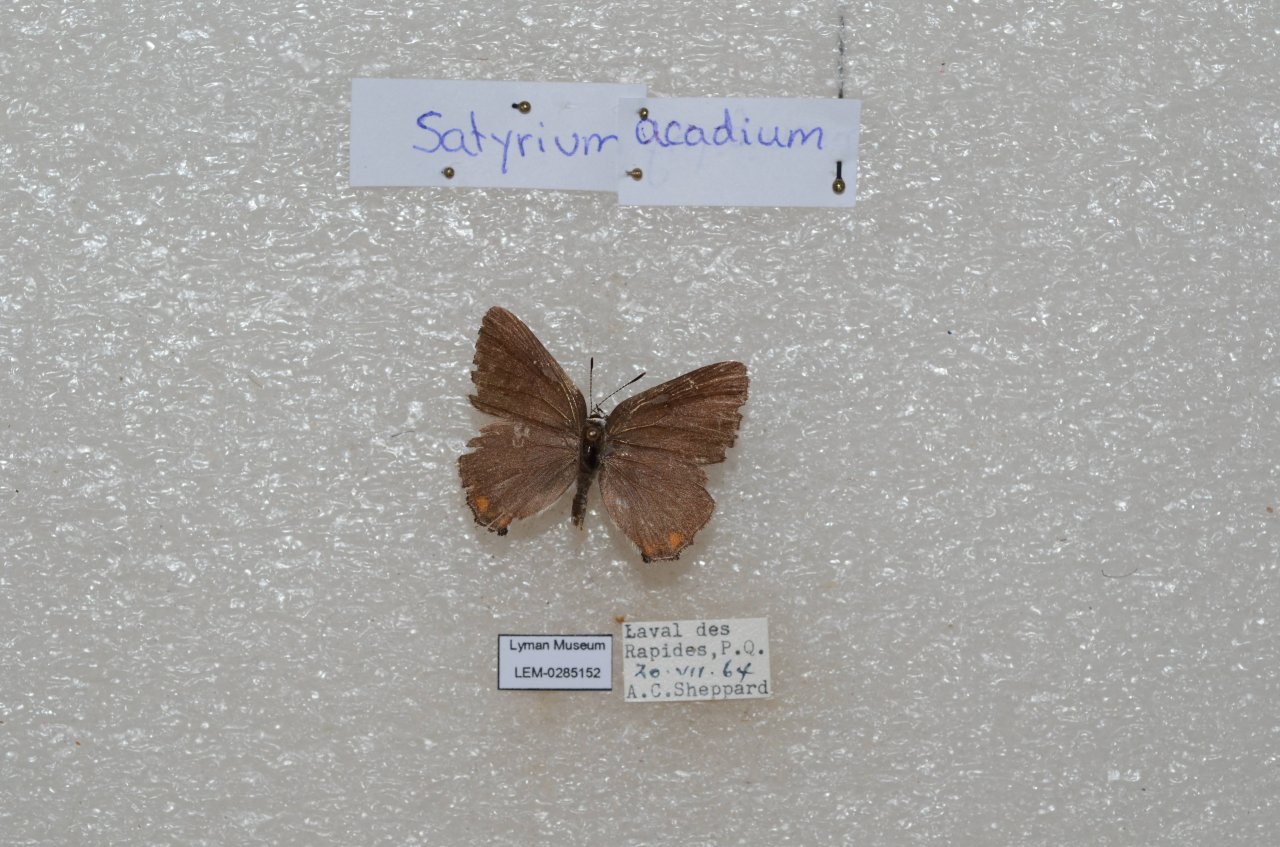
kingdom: Animalia
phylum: Arthropoda
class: Insecta
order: Lepidoptera
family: Lycaenidae
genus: Strymon
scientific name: Strymon acadica
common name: Acadian Hairstreak
